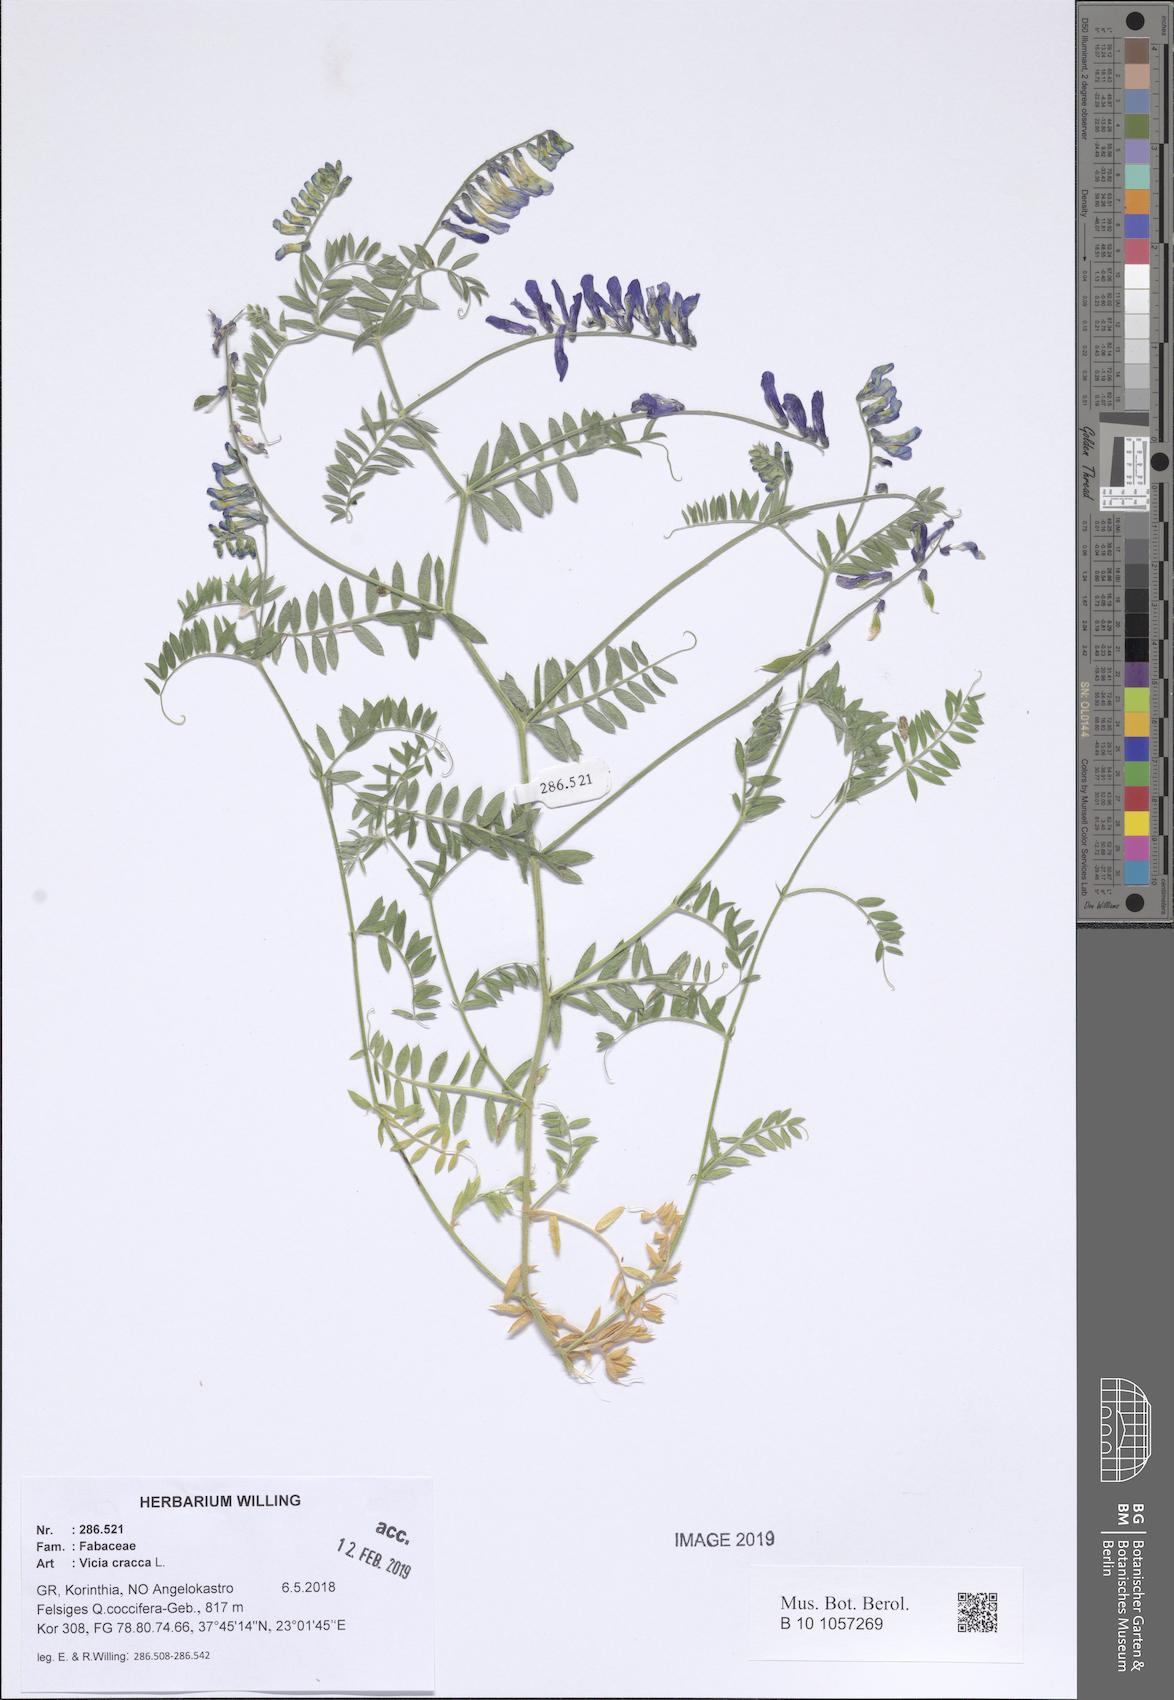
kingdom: Plantae
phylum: Tracheophyta
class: Magnoliopsida
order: Fabales
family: Fabaceae
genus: Vicia
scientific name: Vicia cracca
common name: Bird vetch
